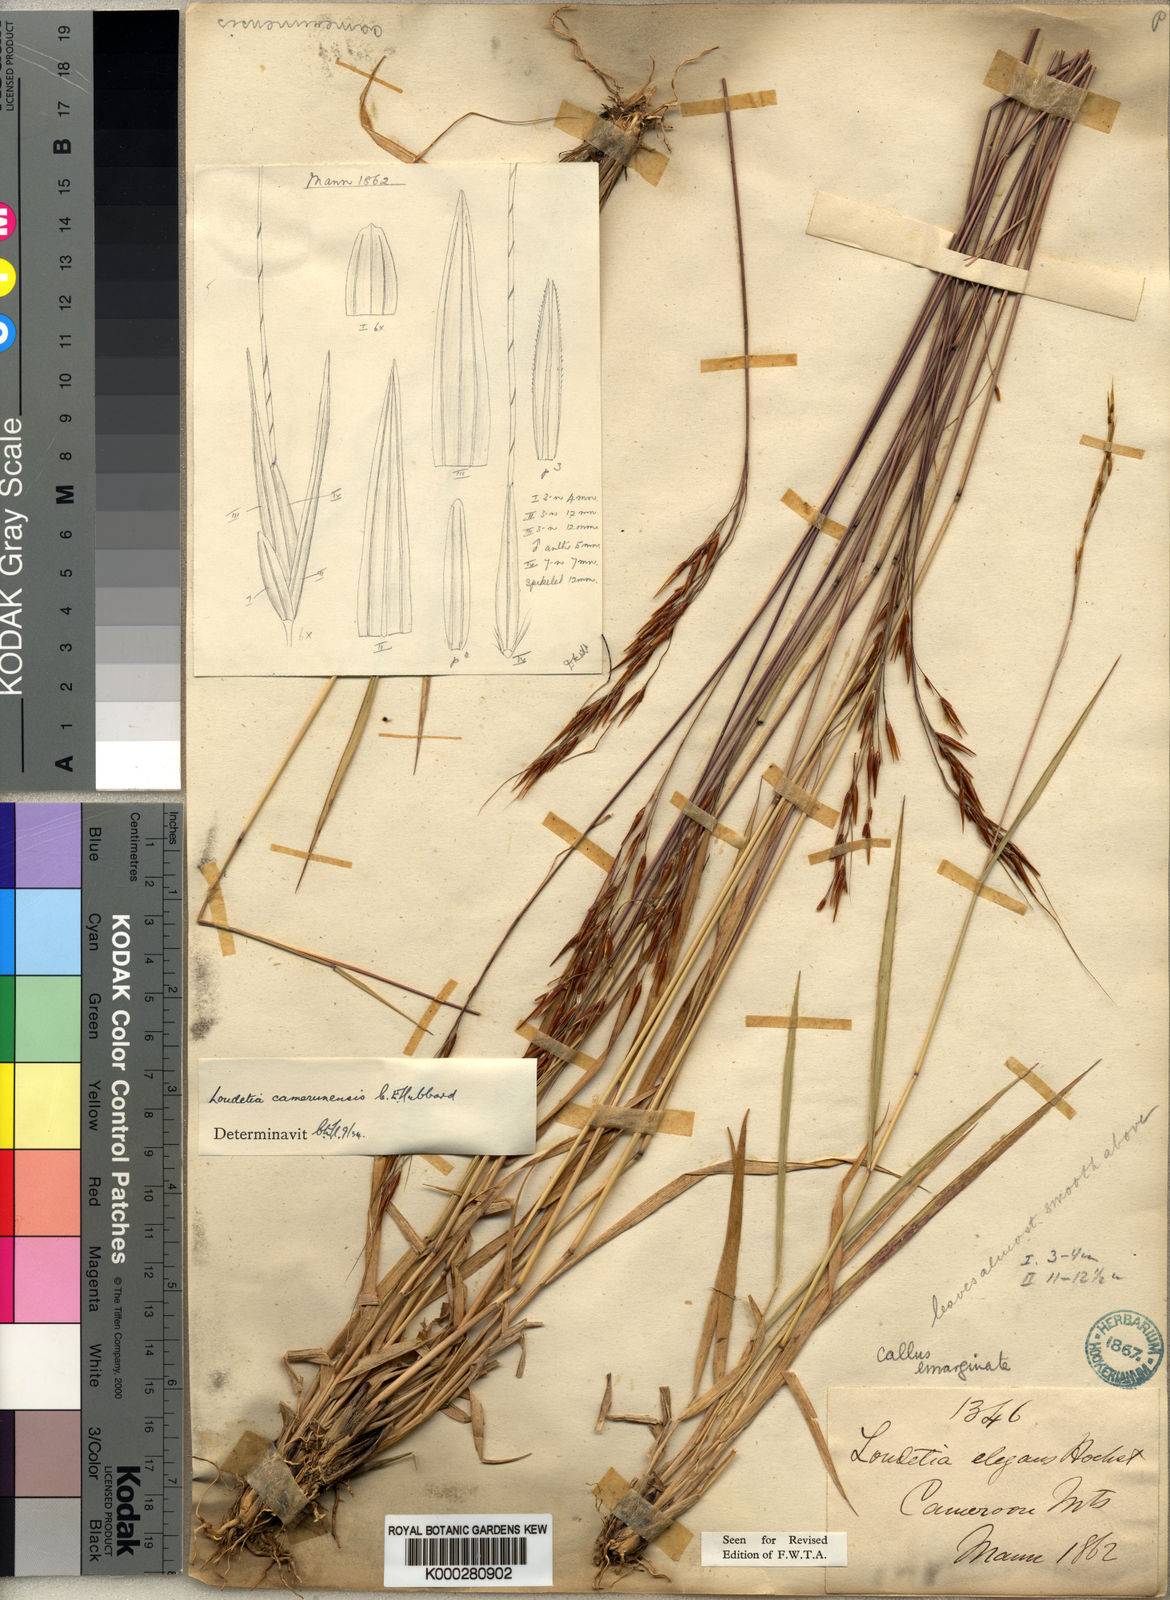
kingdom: Plantae
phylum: Tracheophyta
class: Liliopsida
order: Poales
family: Poaceae
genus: Loudetia
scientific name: Loudetia simplex
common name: Common russet grass
